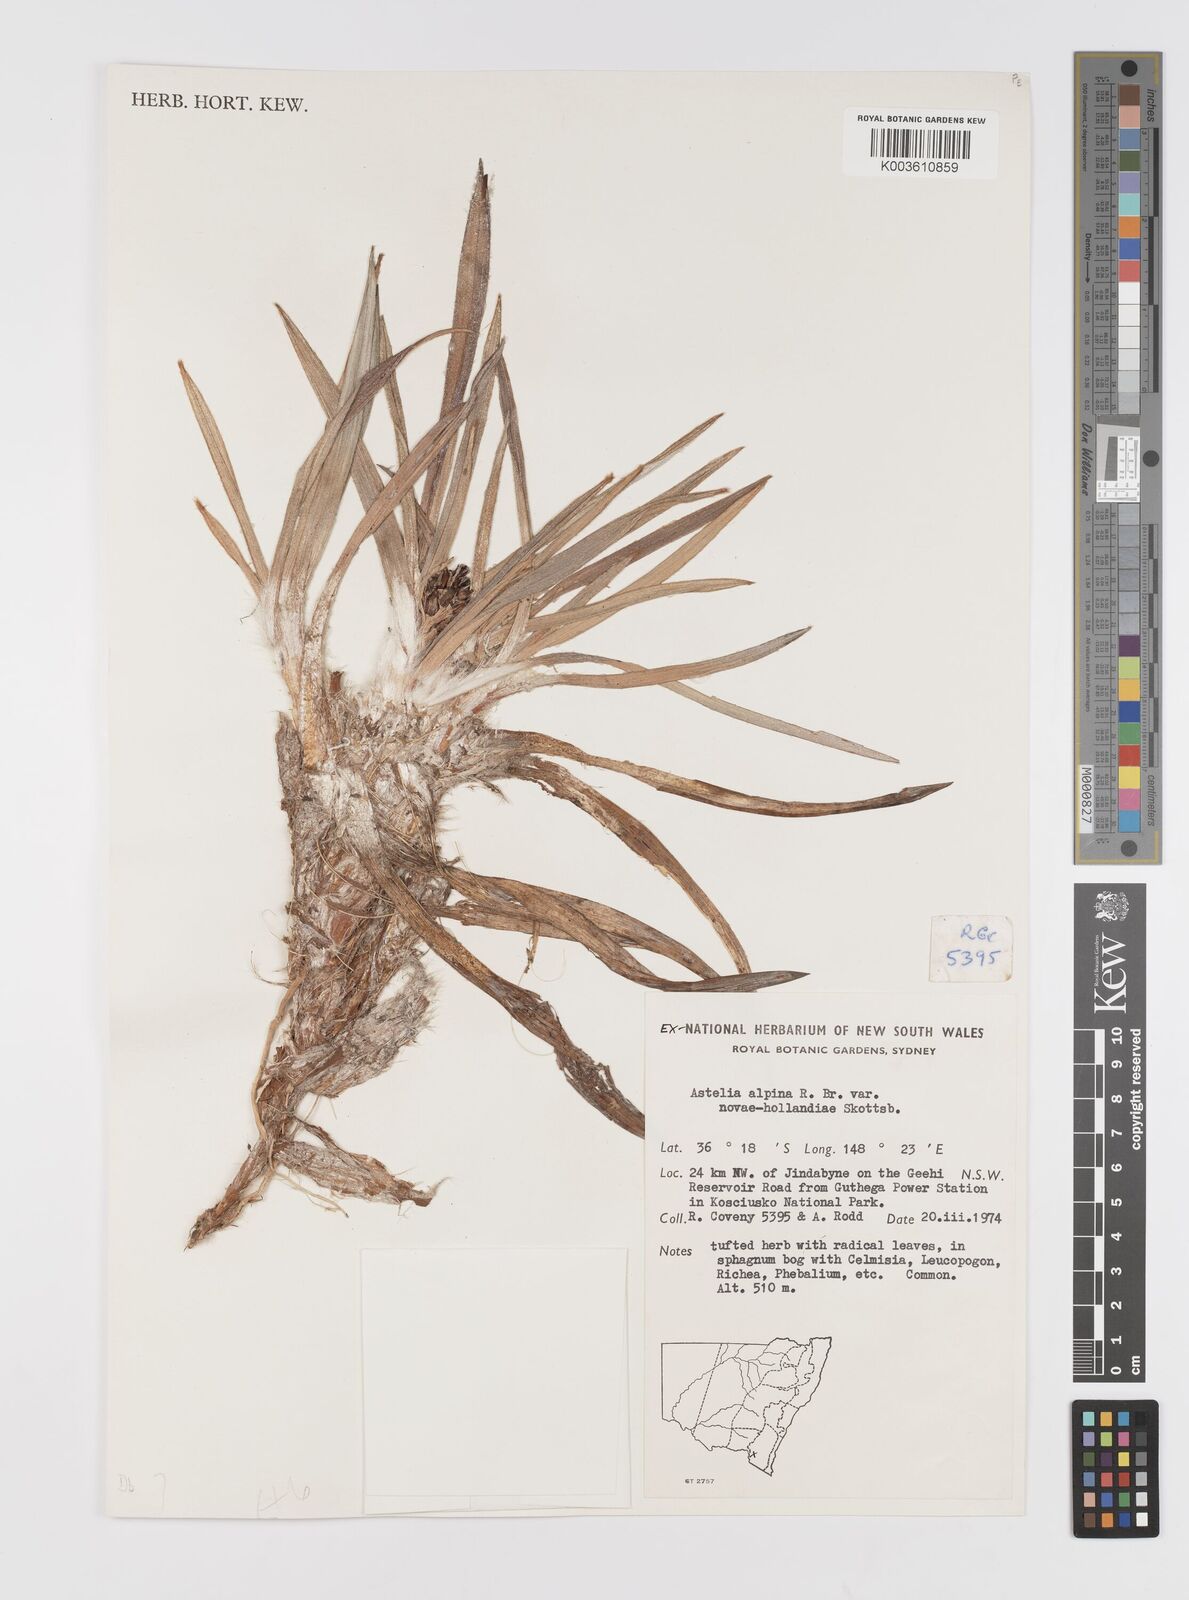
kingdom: Plantae
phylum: Tracheophyta
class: Liliopsida
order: Asparagales
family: Asteliaceae
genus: Astelia
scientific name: Astelia alpina
